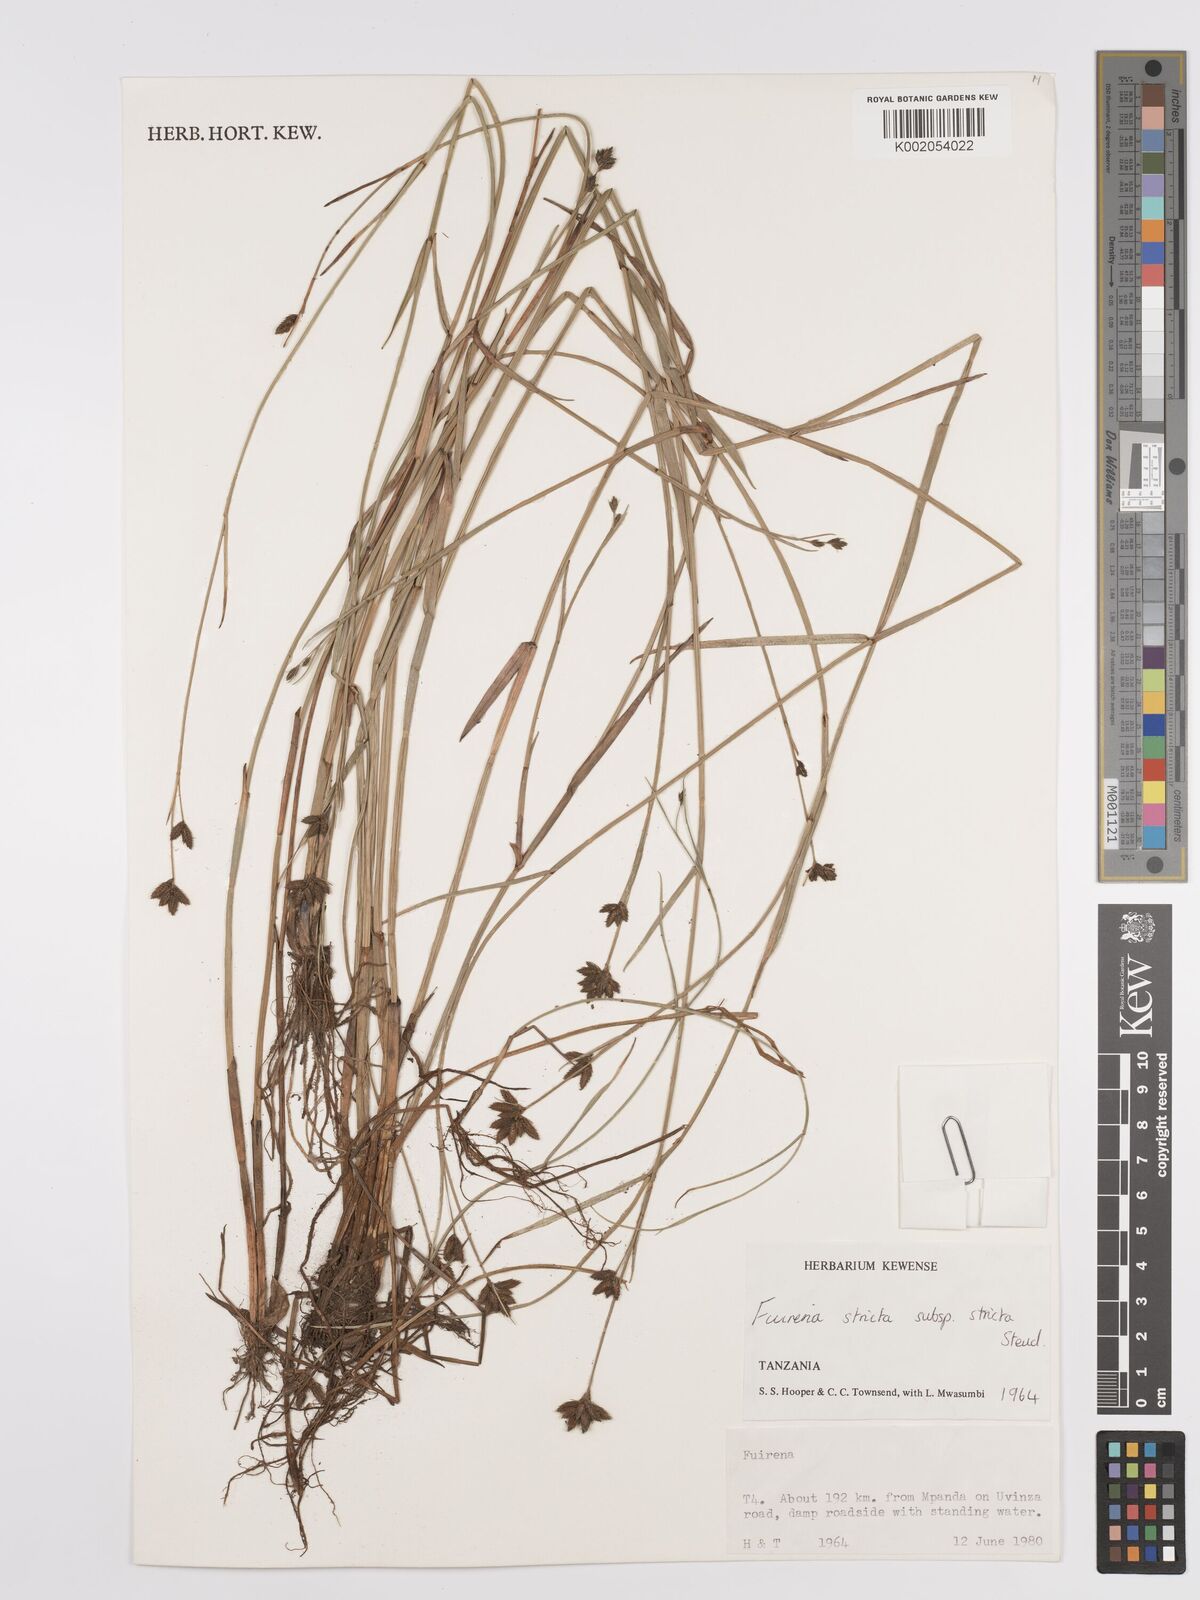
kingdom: Plantae
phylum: Tracheophyta
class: Liliopsida
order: Poales
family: Cyperaceae
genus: Fuirena
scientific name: Fuirena stricta
